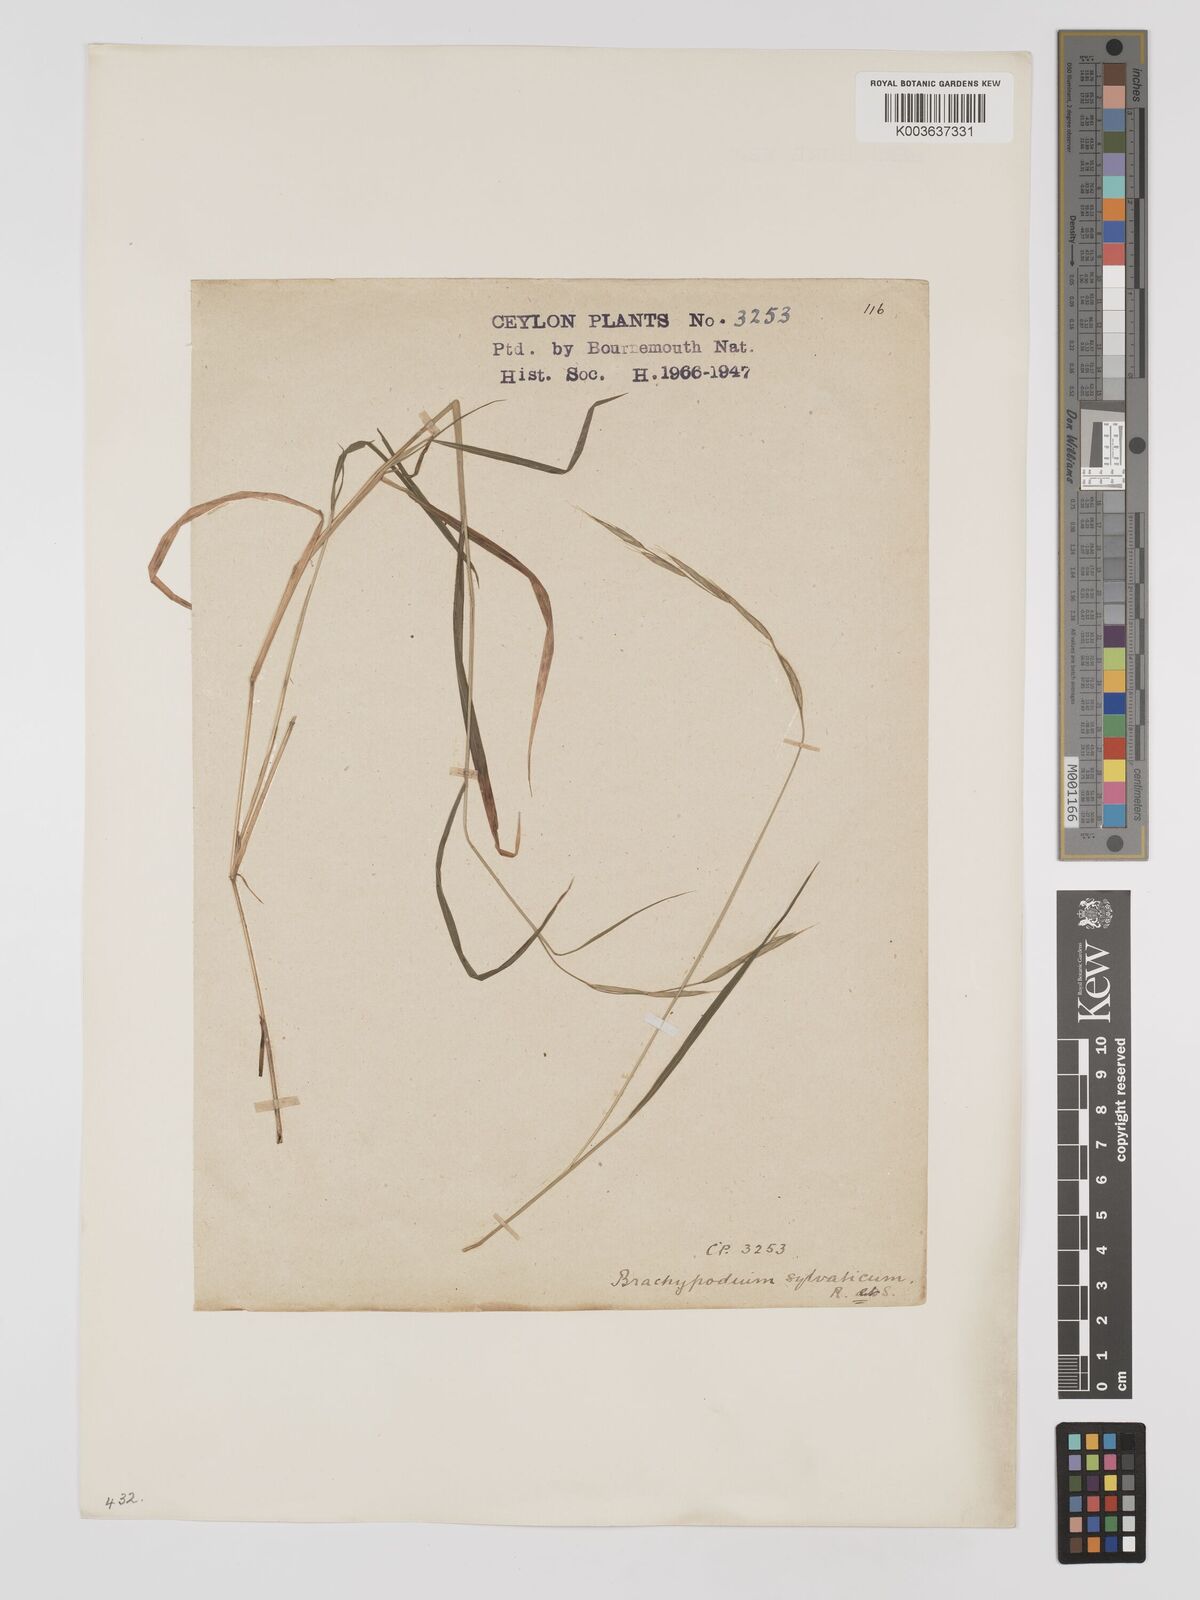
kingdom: Plantae
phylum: Tracheophyta
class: Liliopsida
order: Poales
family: Poaceae
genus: Brachypodium
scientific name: Brachypodium sylvaticum
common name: False-brome
